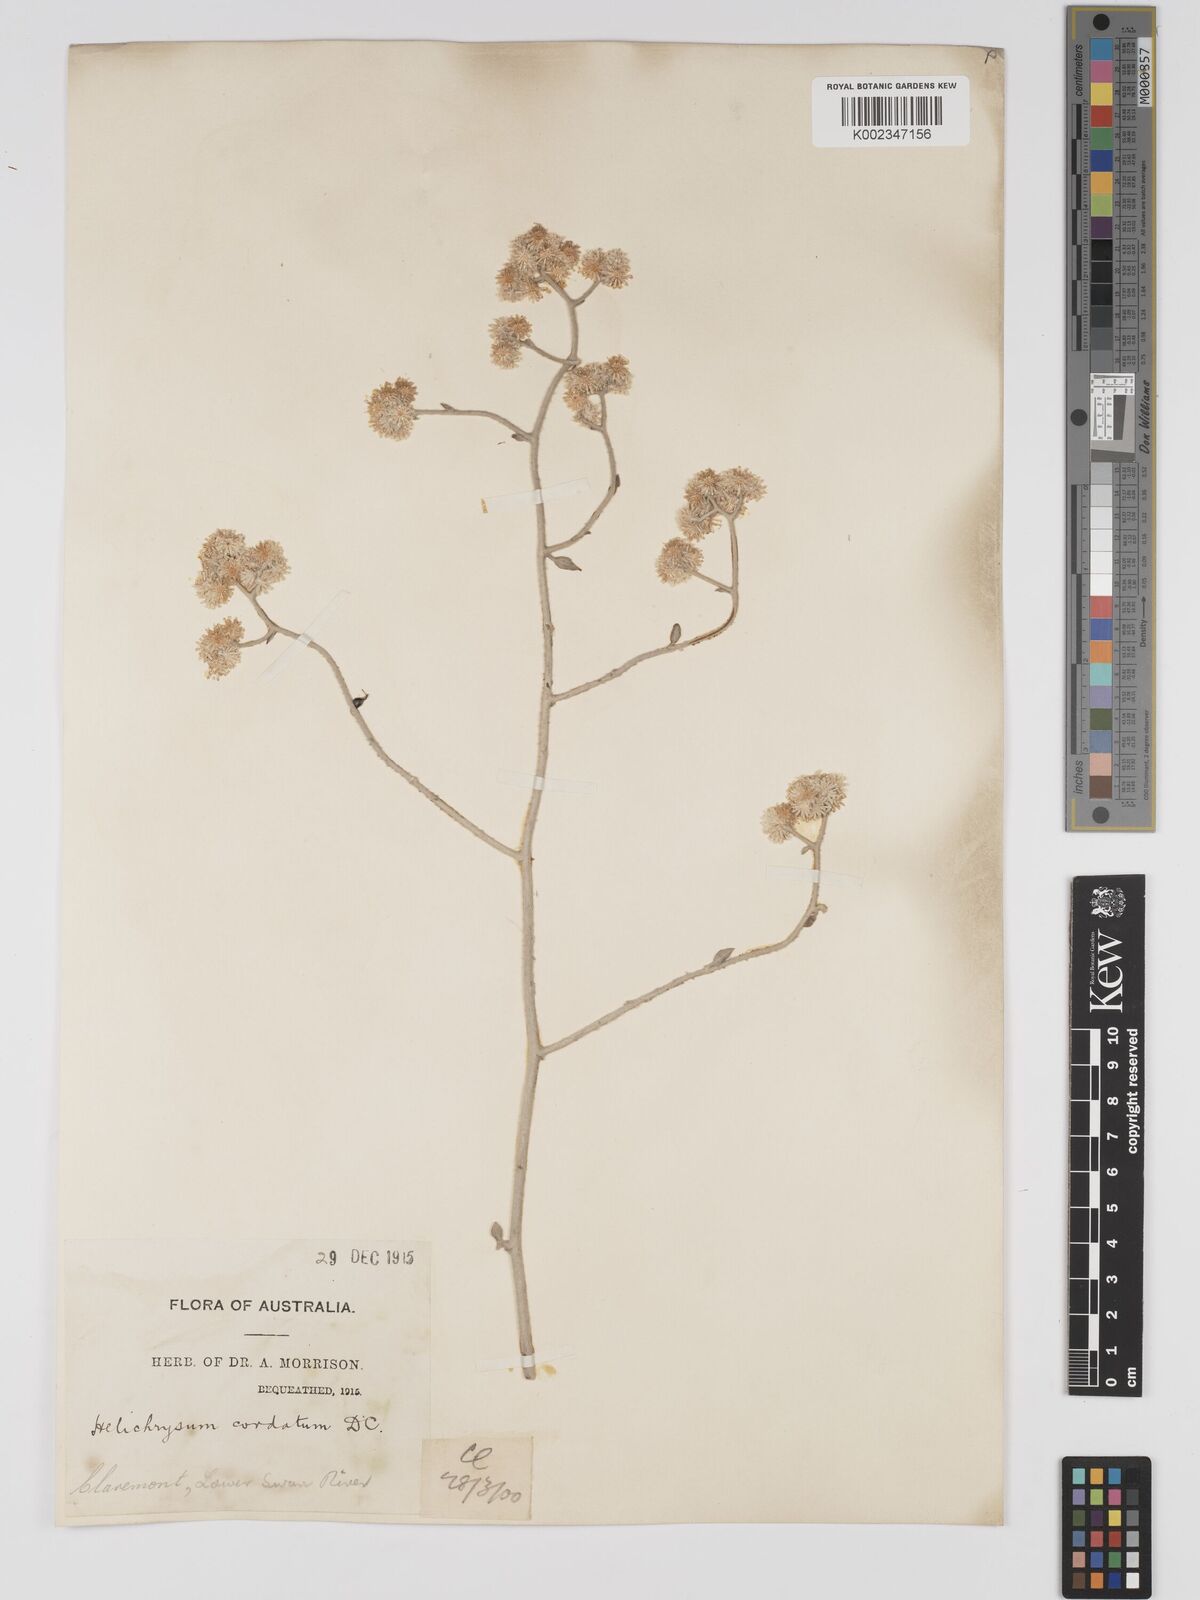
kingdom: Plantae
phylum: Tracheophyta
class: Magnoliopsida
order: Asterales
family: Asteraceae
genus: Ozothamnus
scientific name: Ozothamnus
